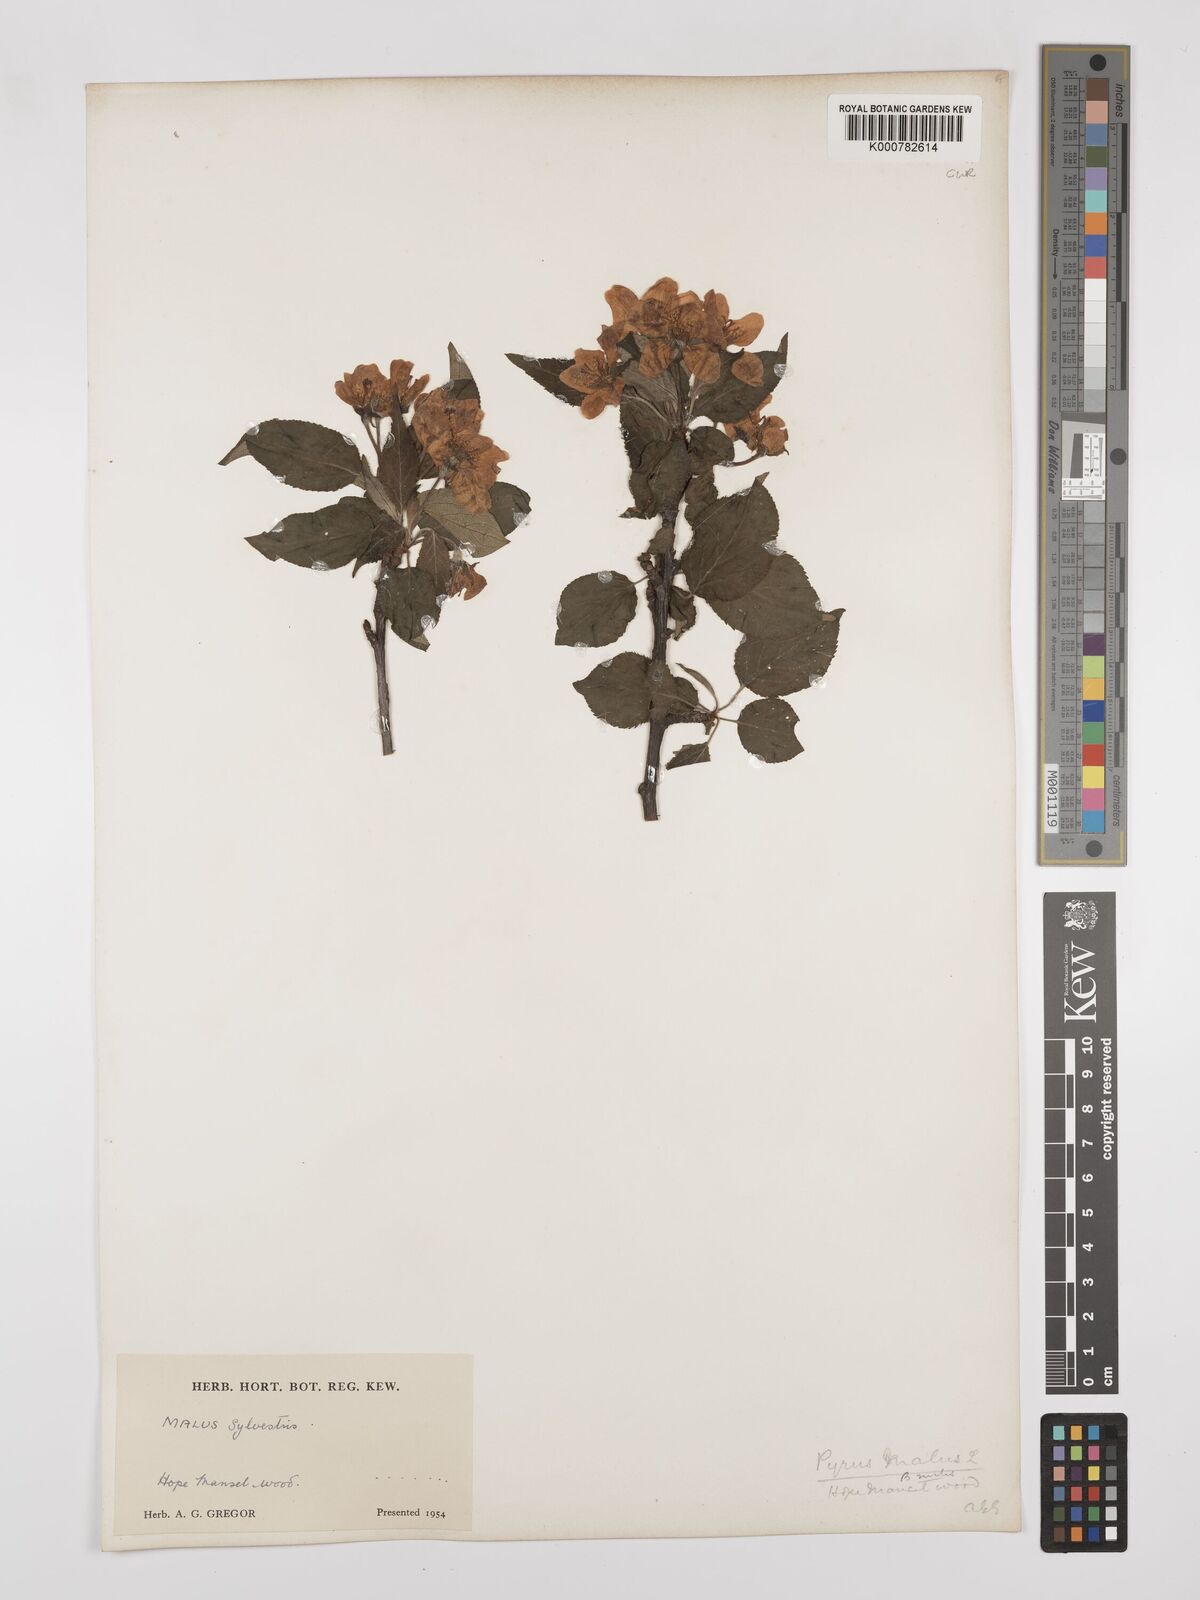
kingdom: Plantae
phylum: Tracheophyta
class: Magnoliopsida
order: Rosales
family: Rosaceae
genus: Malus
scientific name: Malus sylvestris
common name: Crab apple
